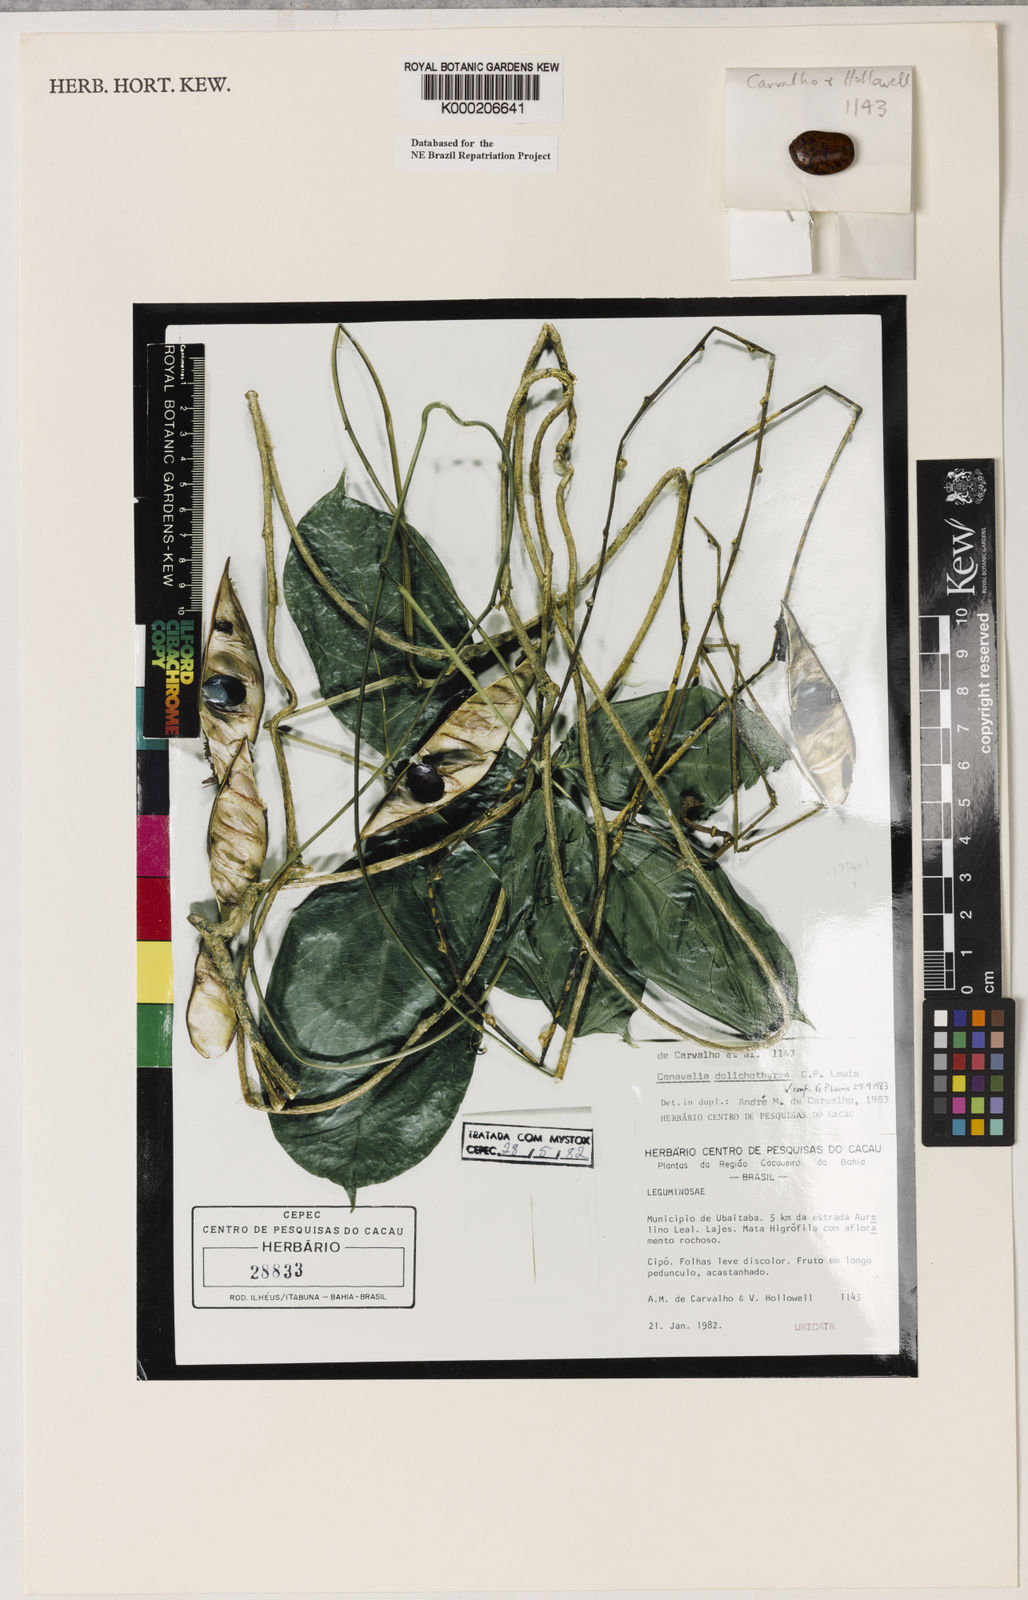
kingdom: Plantae
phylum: Tracheophyta
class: Magnoliopsida
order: Fabales
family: Fabaceae
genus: Canavalia
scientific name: Canavalia dolichothyrsa
